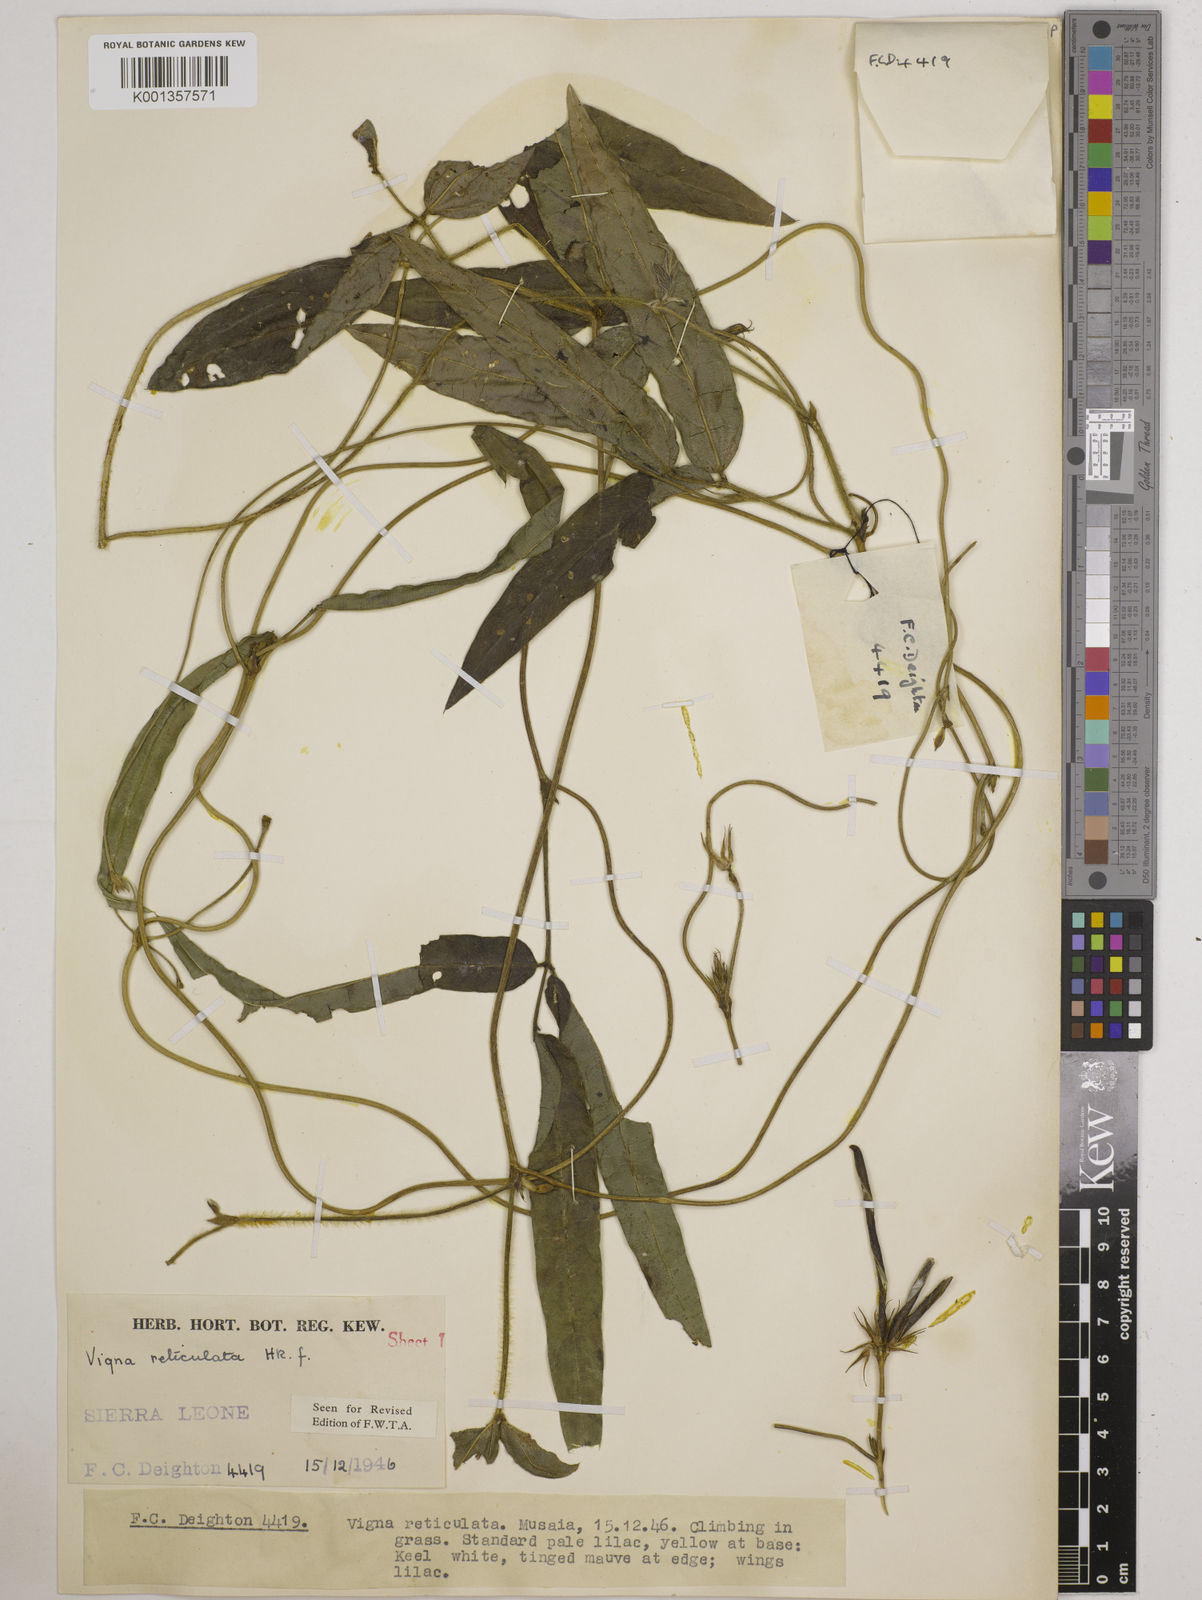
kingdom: Plantae
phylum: Tracheophyta
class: Magnoliopsida
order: Fabales
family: Fabaceae
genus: Vigna
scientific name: Vigna reticulata
